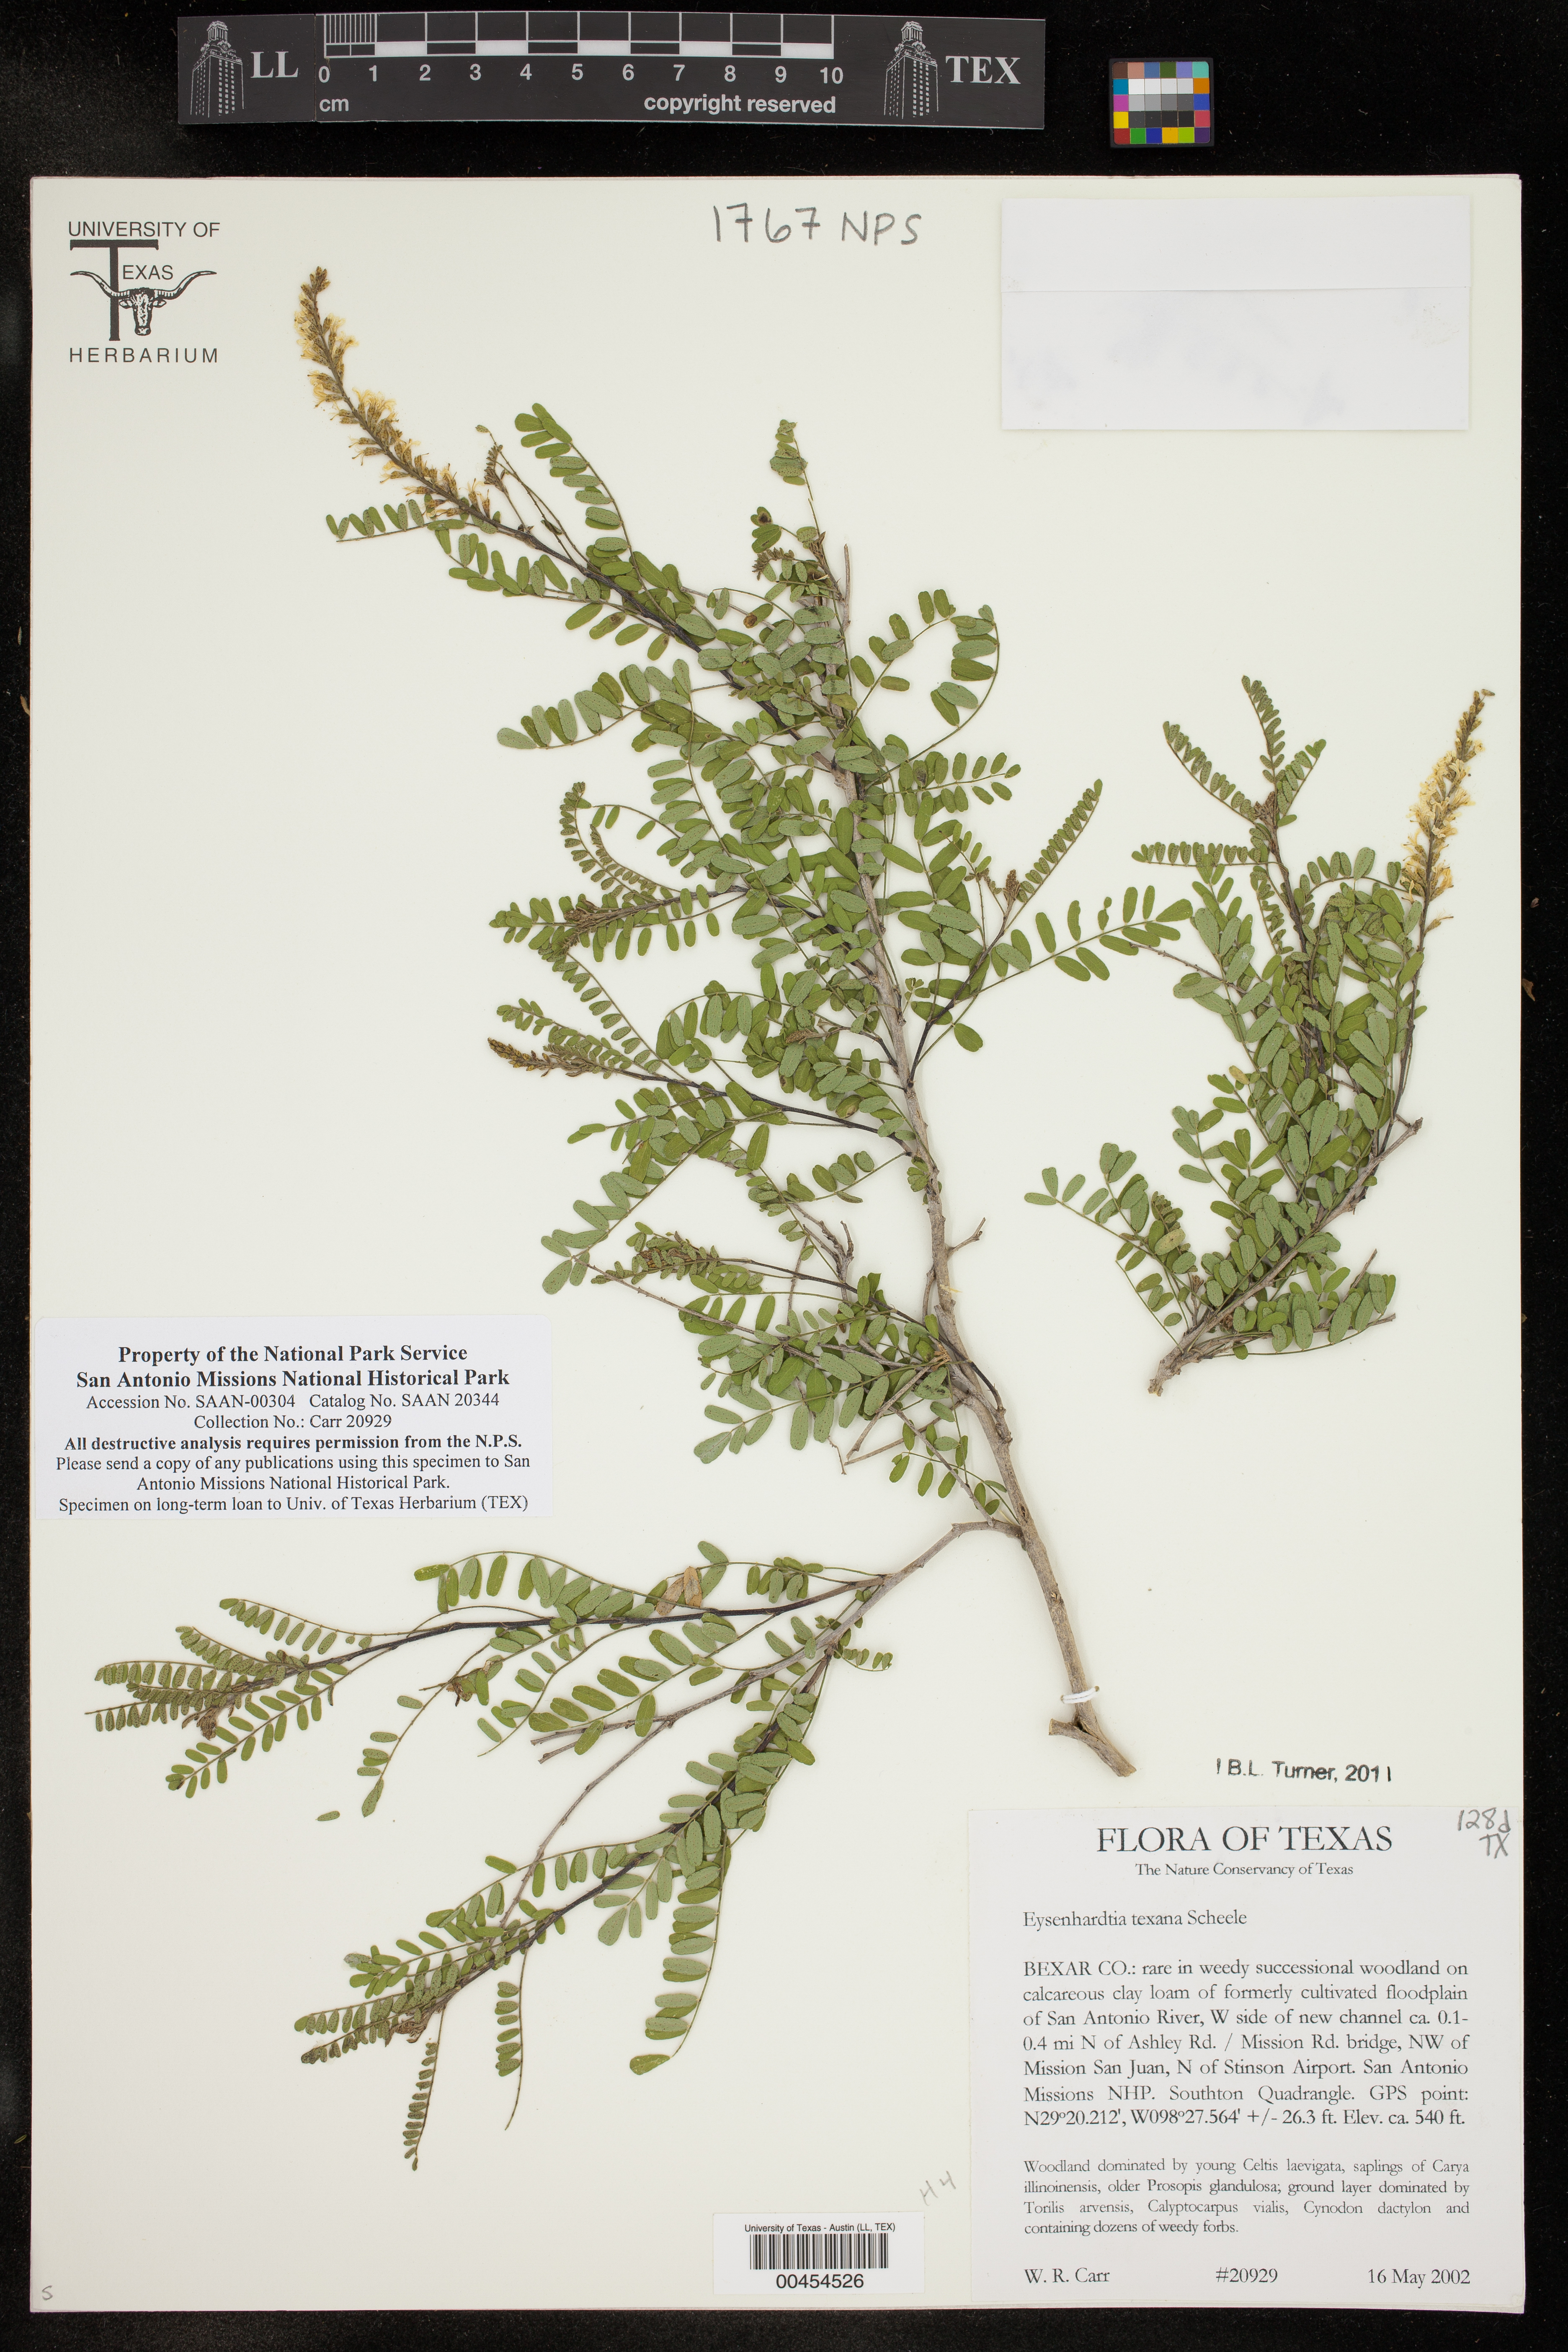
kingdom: Plantae
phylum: Tracheophyta
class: Magnoliopsida
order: Fabales
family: Fabaceae
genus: Eysenhardtia
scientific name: Eysenhardtia texana
